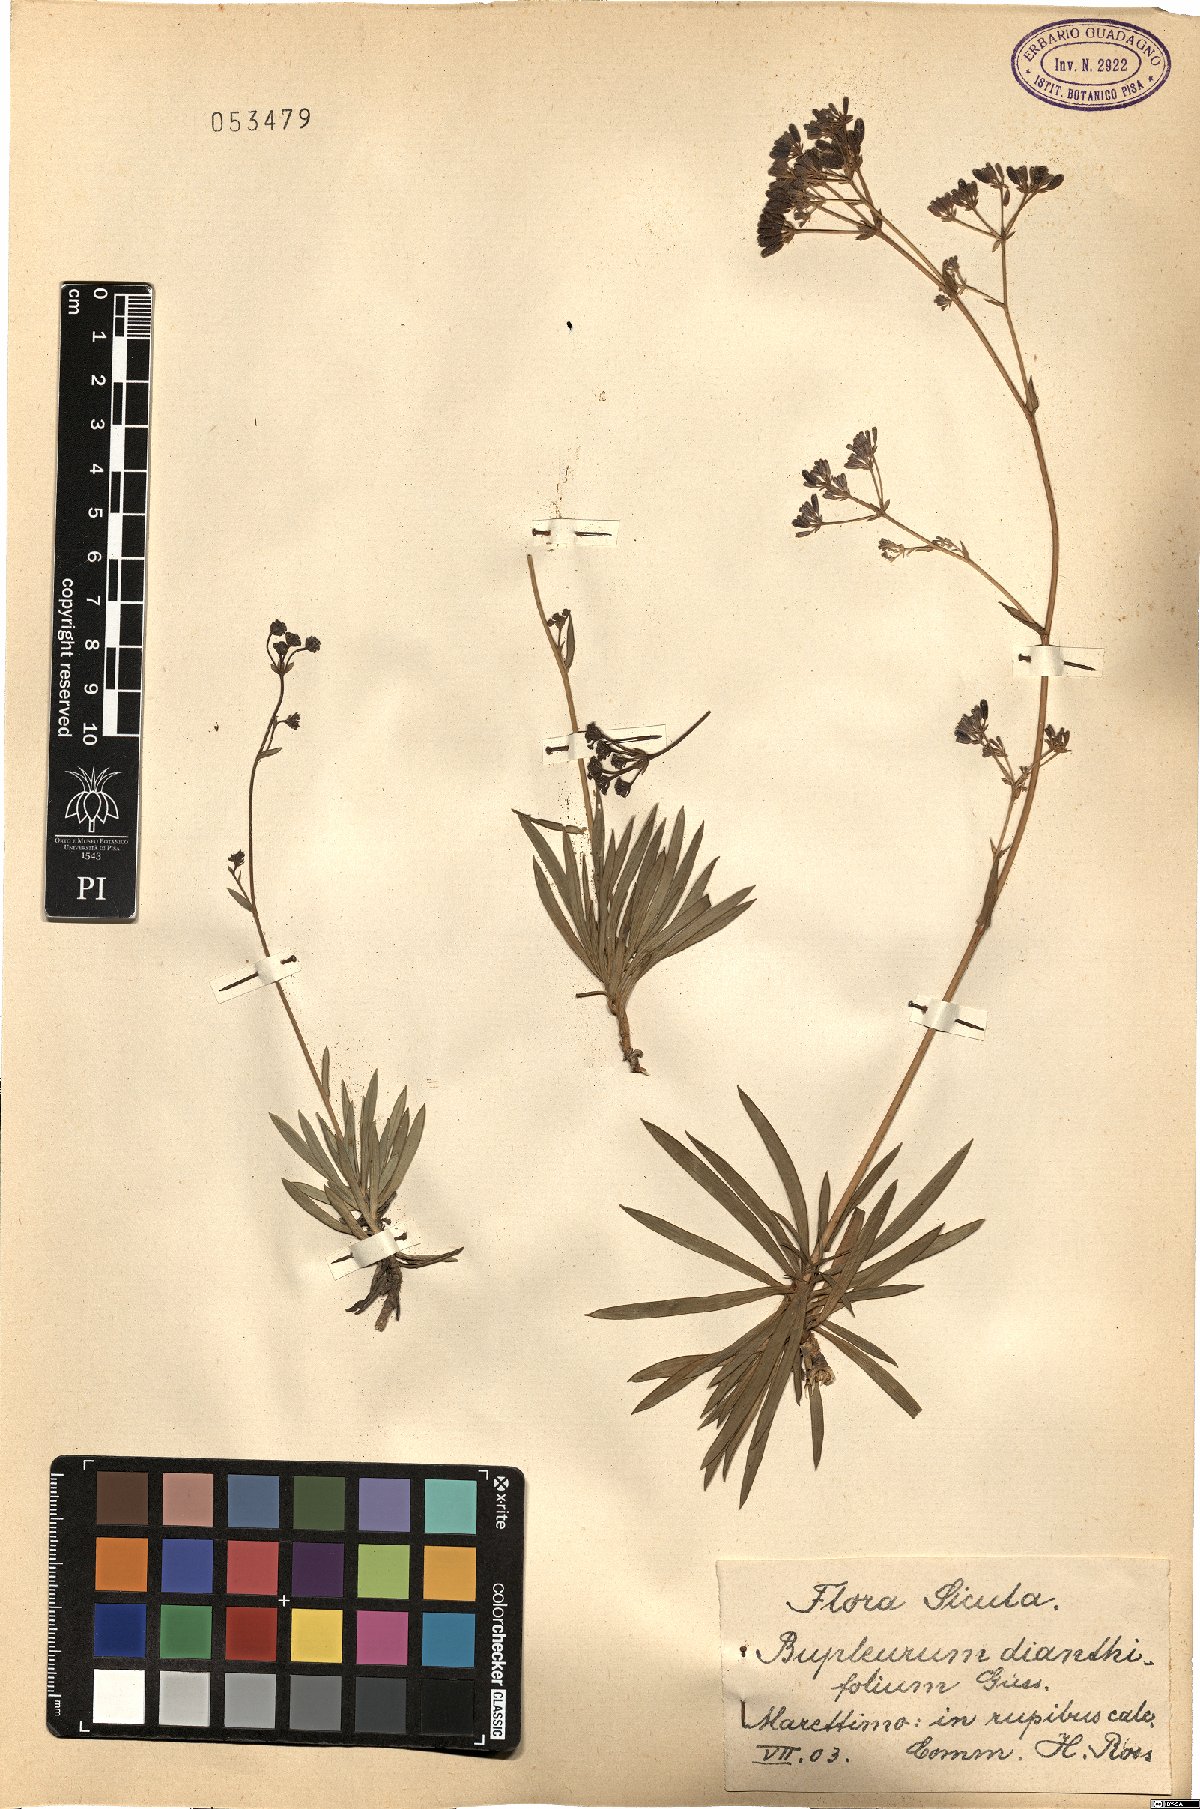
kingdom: Plantae
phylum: Tracheophyta
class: Magnoliopsida
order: Apiales
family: Apiaceae
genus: Bupleurum
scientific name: Bupleurum dianthifolium
